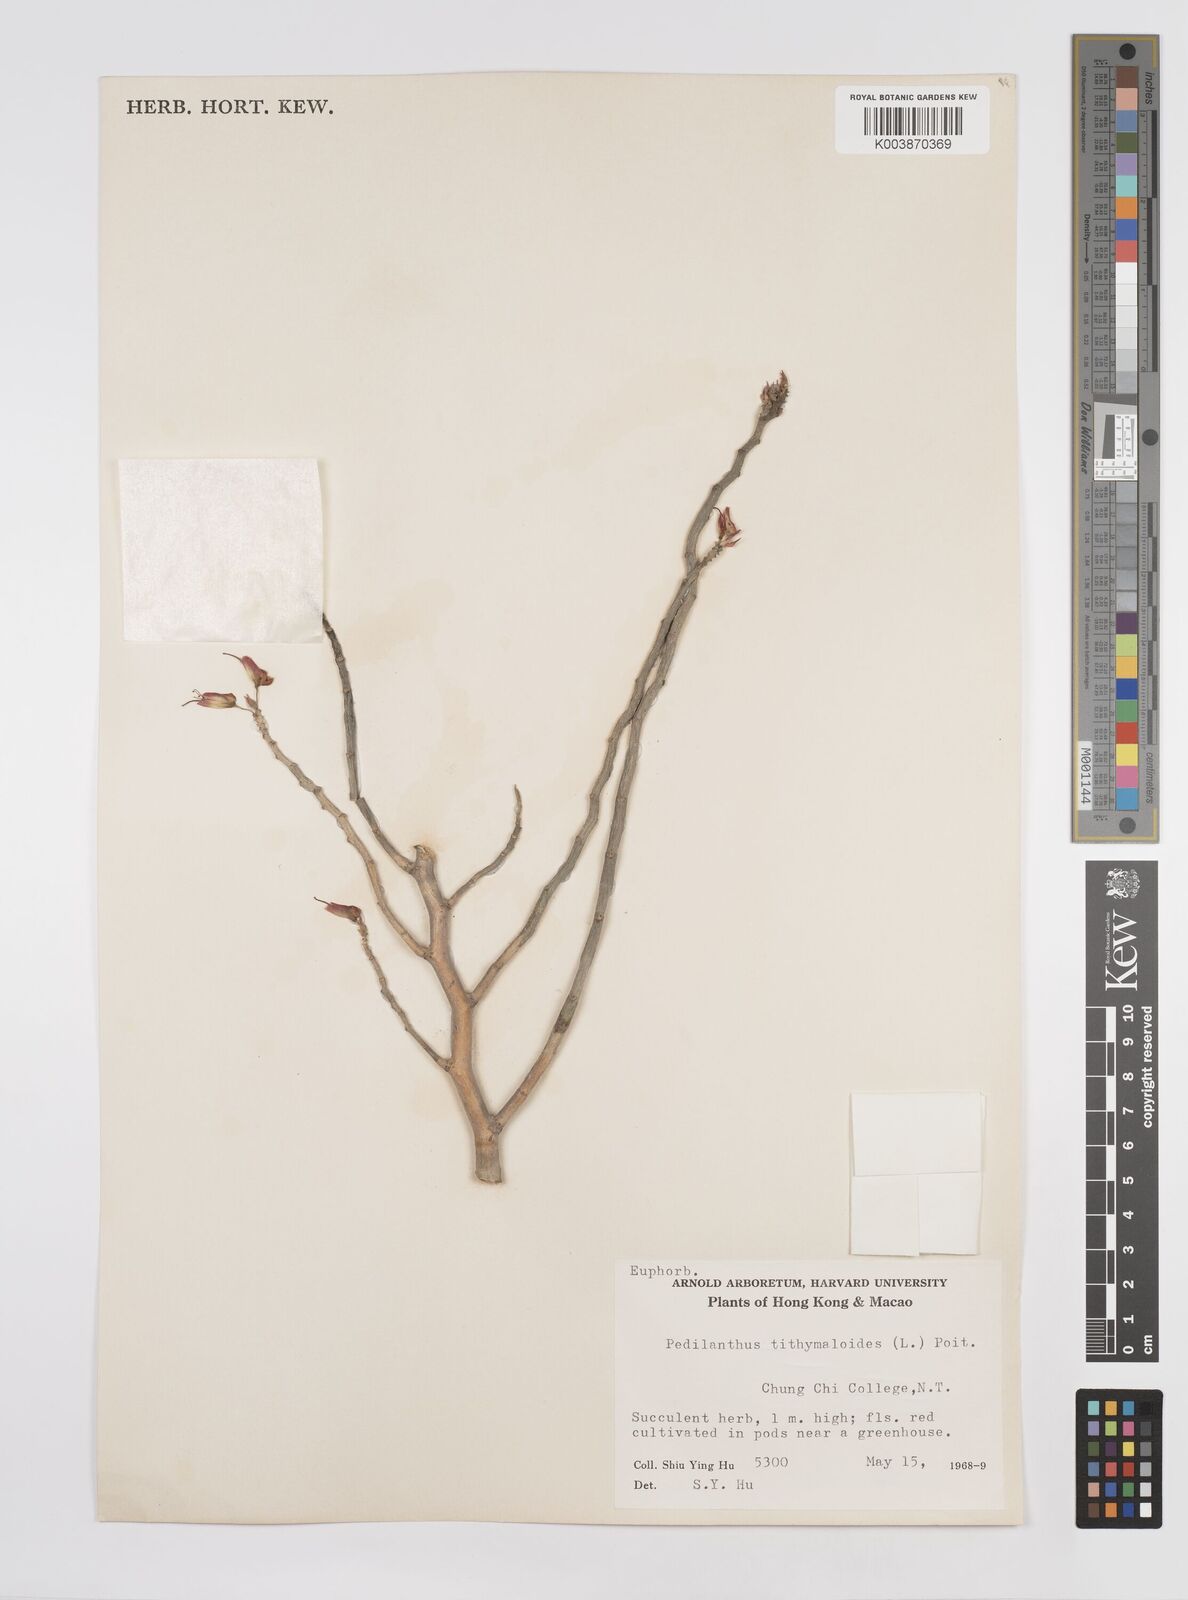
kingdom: Plantae
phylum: Tracheophyta
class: Magnoliopsida
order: Malpighiales
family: Euphorbiaceae
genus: Euphorbia
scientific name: Euphorbia tithymaloides
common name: Slipperplant
